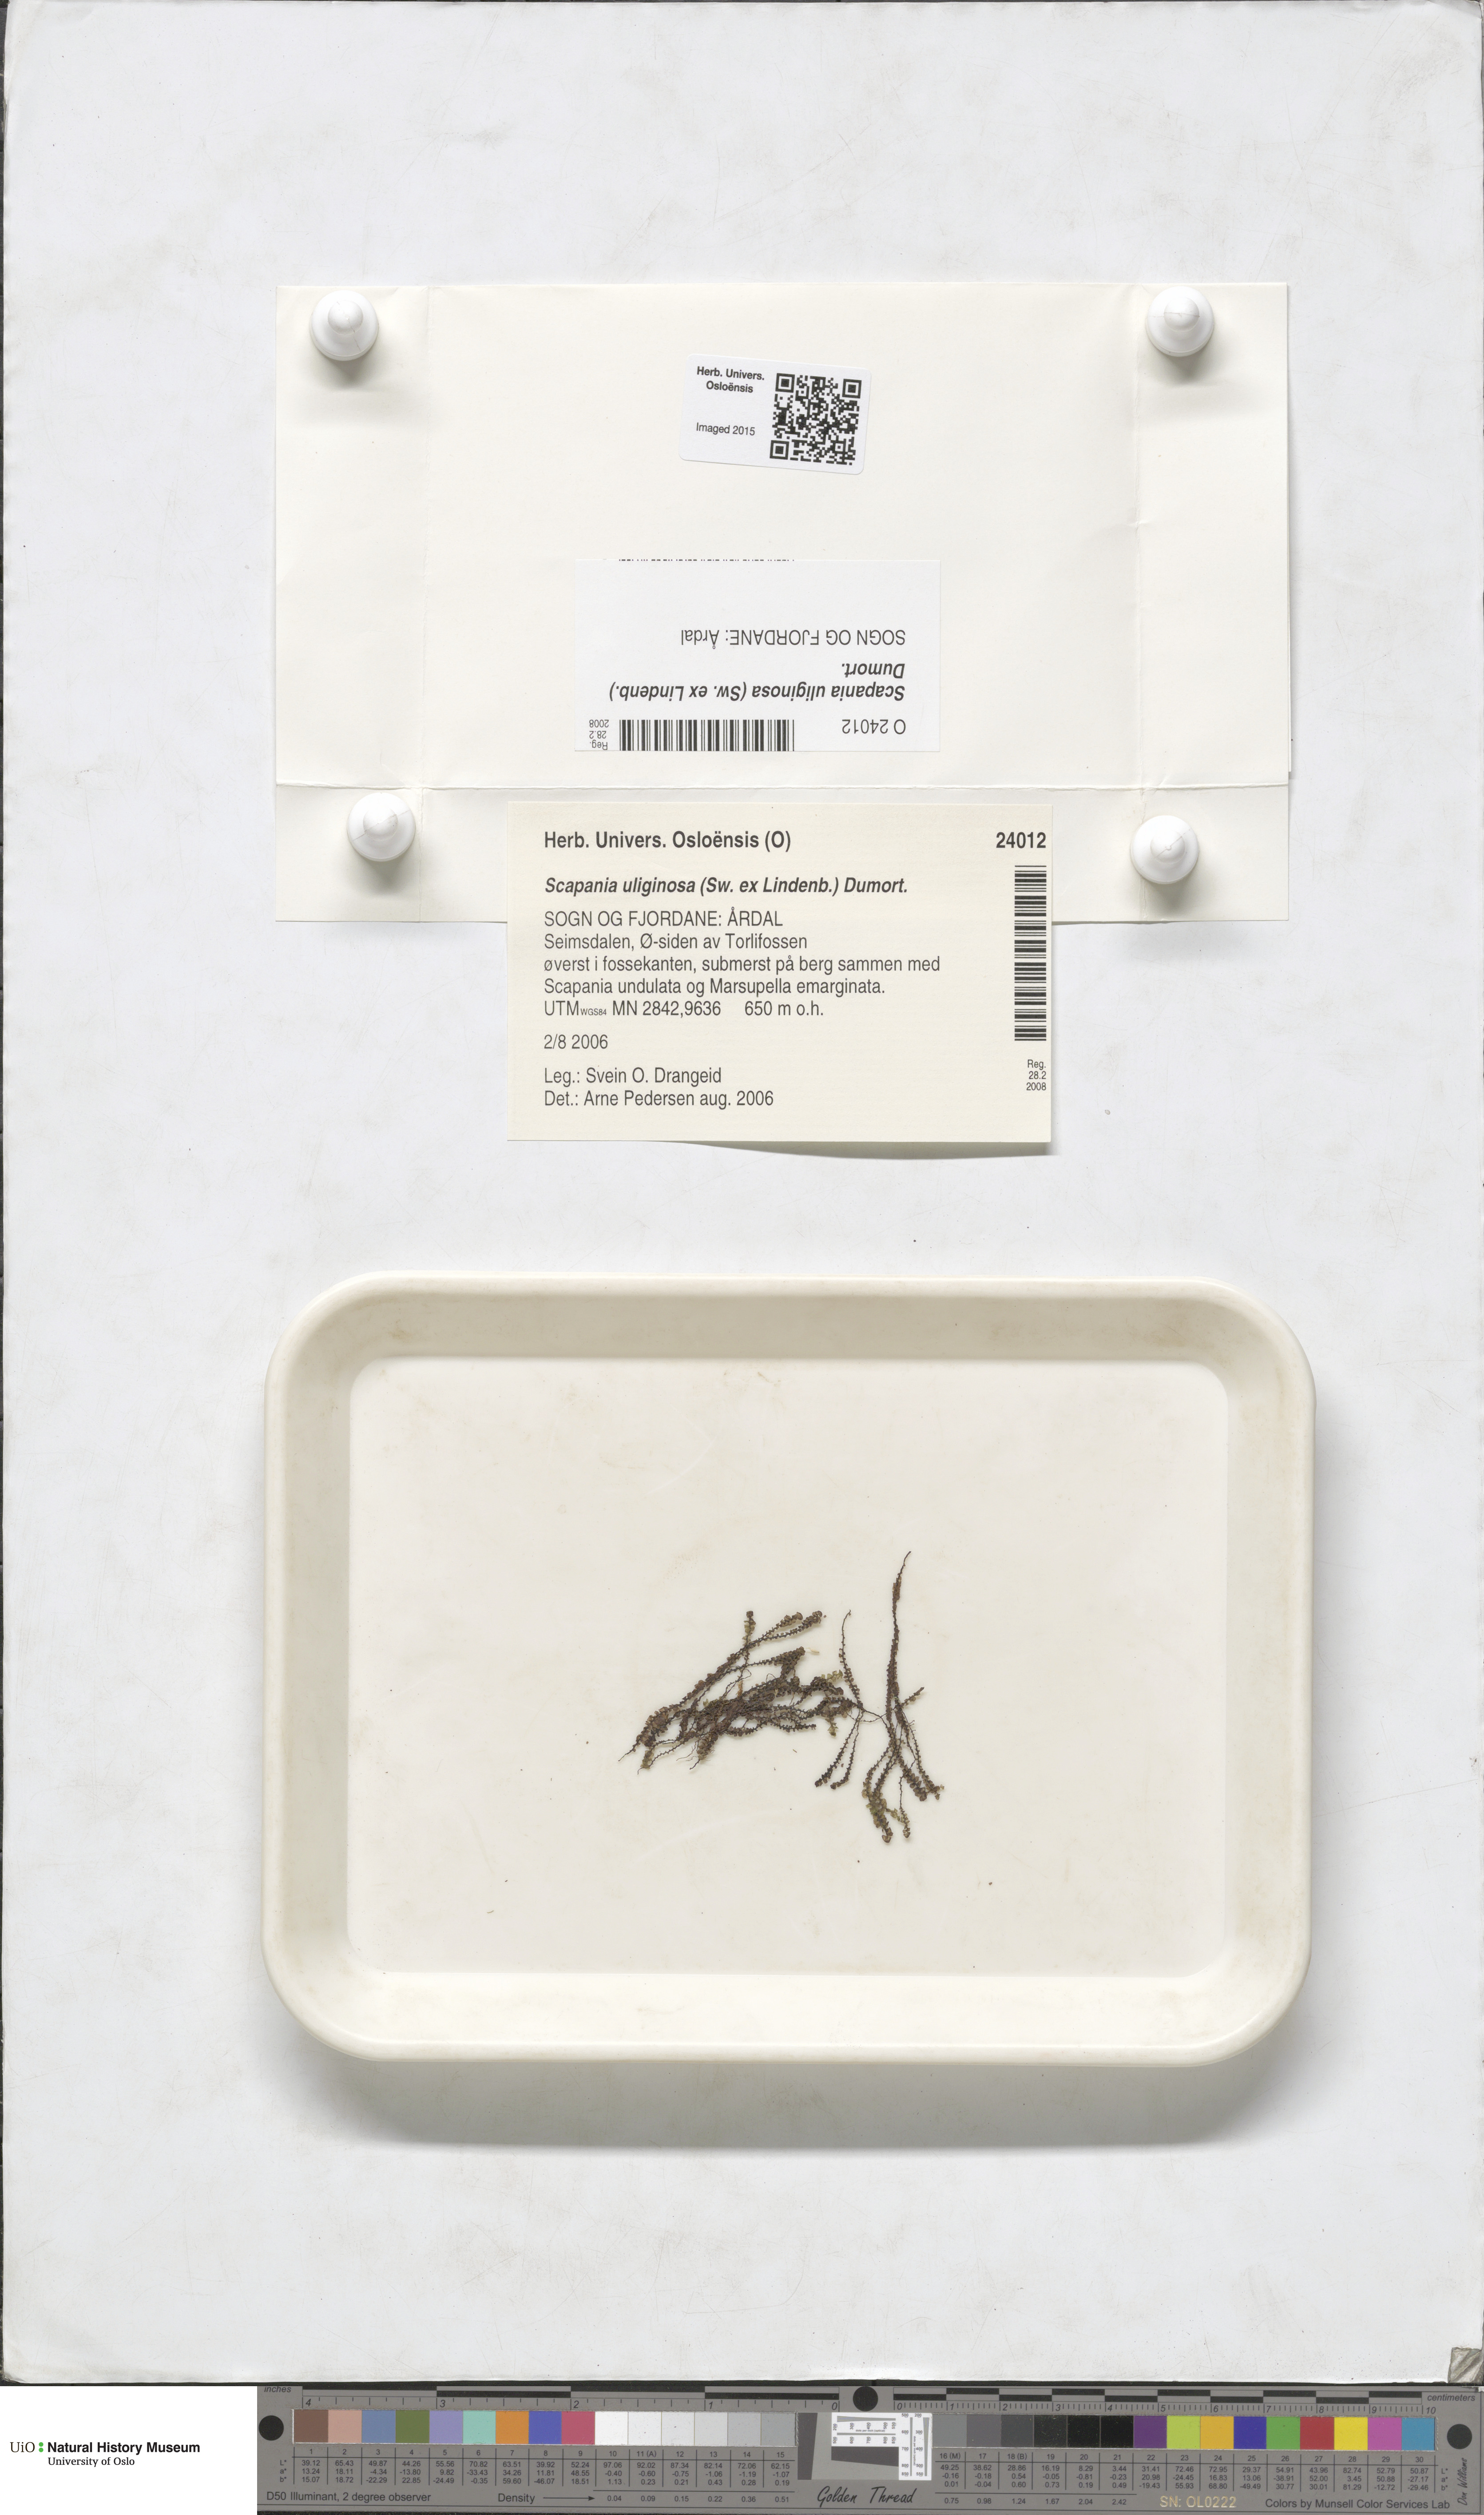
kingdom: Plantae
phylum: Marchantiophyta
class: Jungermanniopsida
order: Jungermanniales
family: Scapaniaceae
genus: Scapania
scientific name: Scapania uliginosa
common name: Marsh earwort
